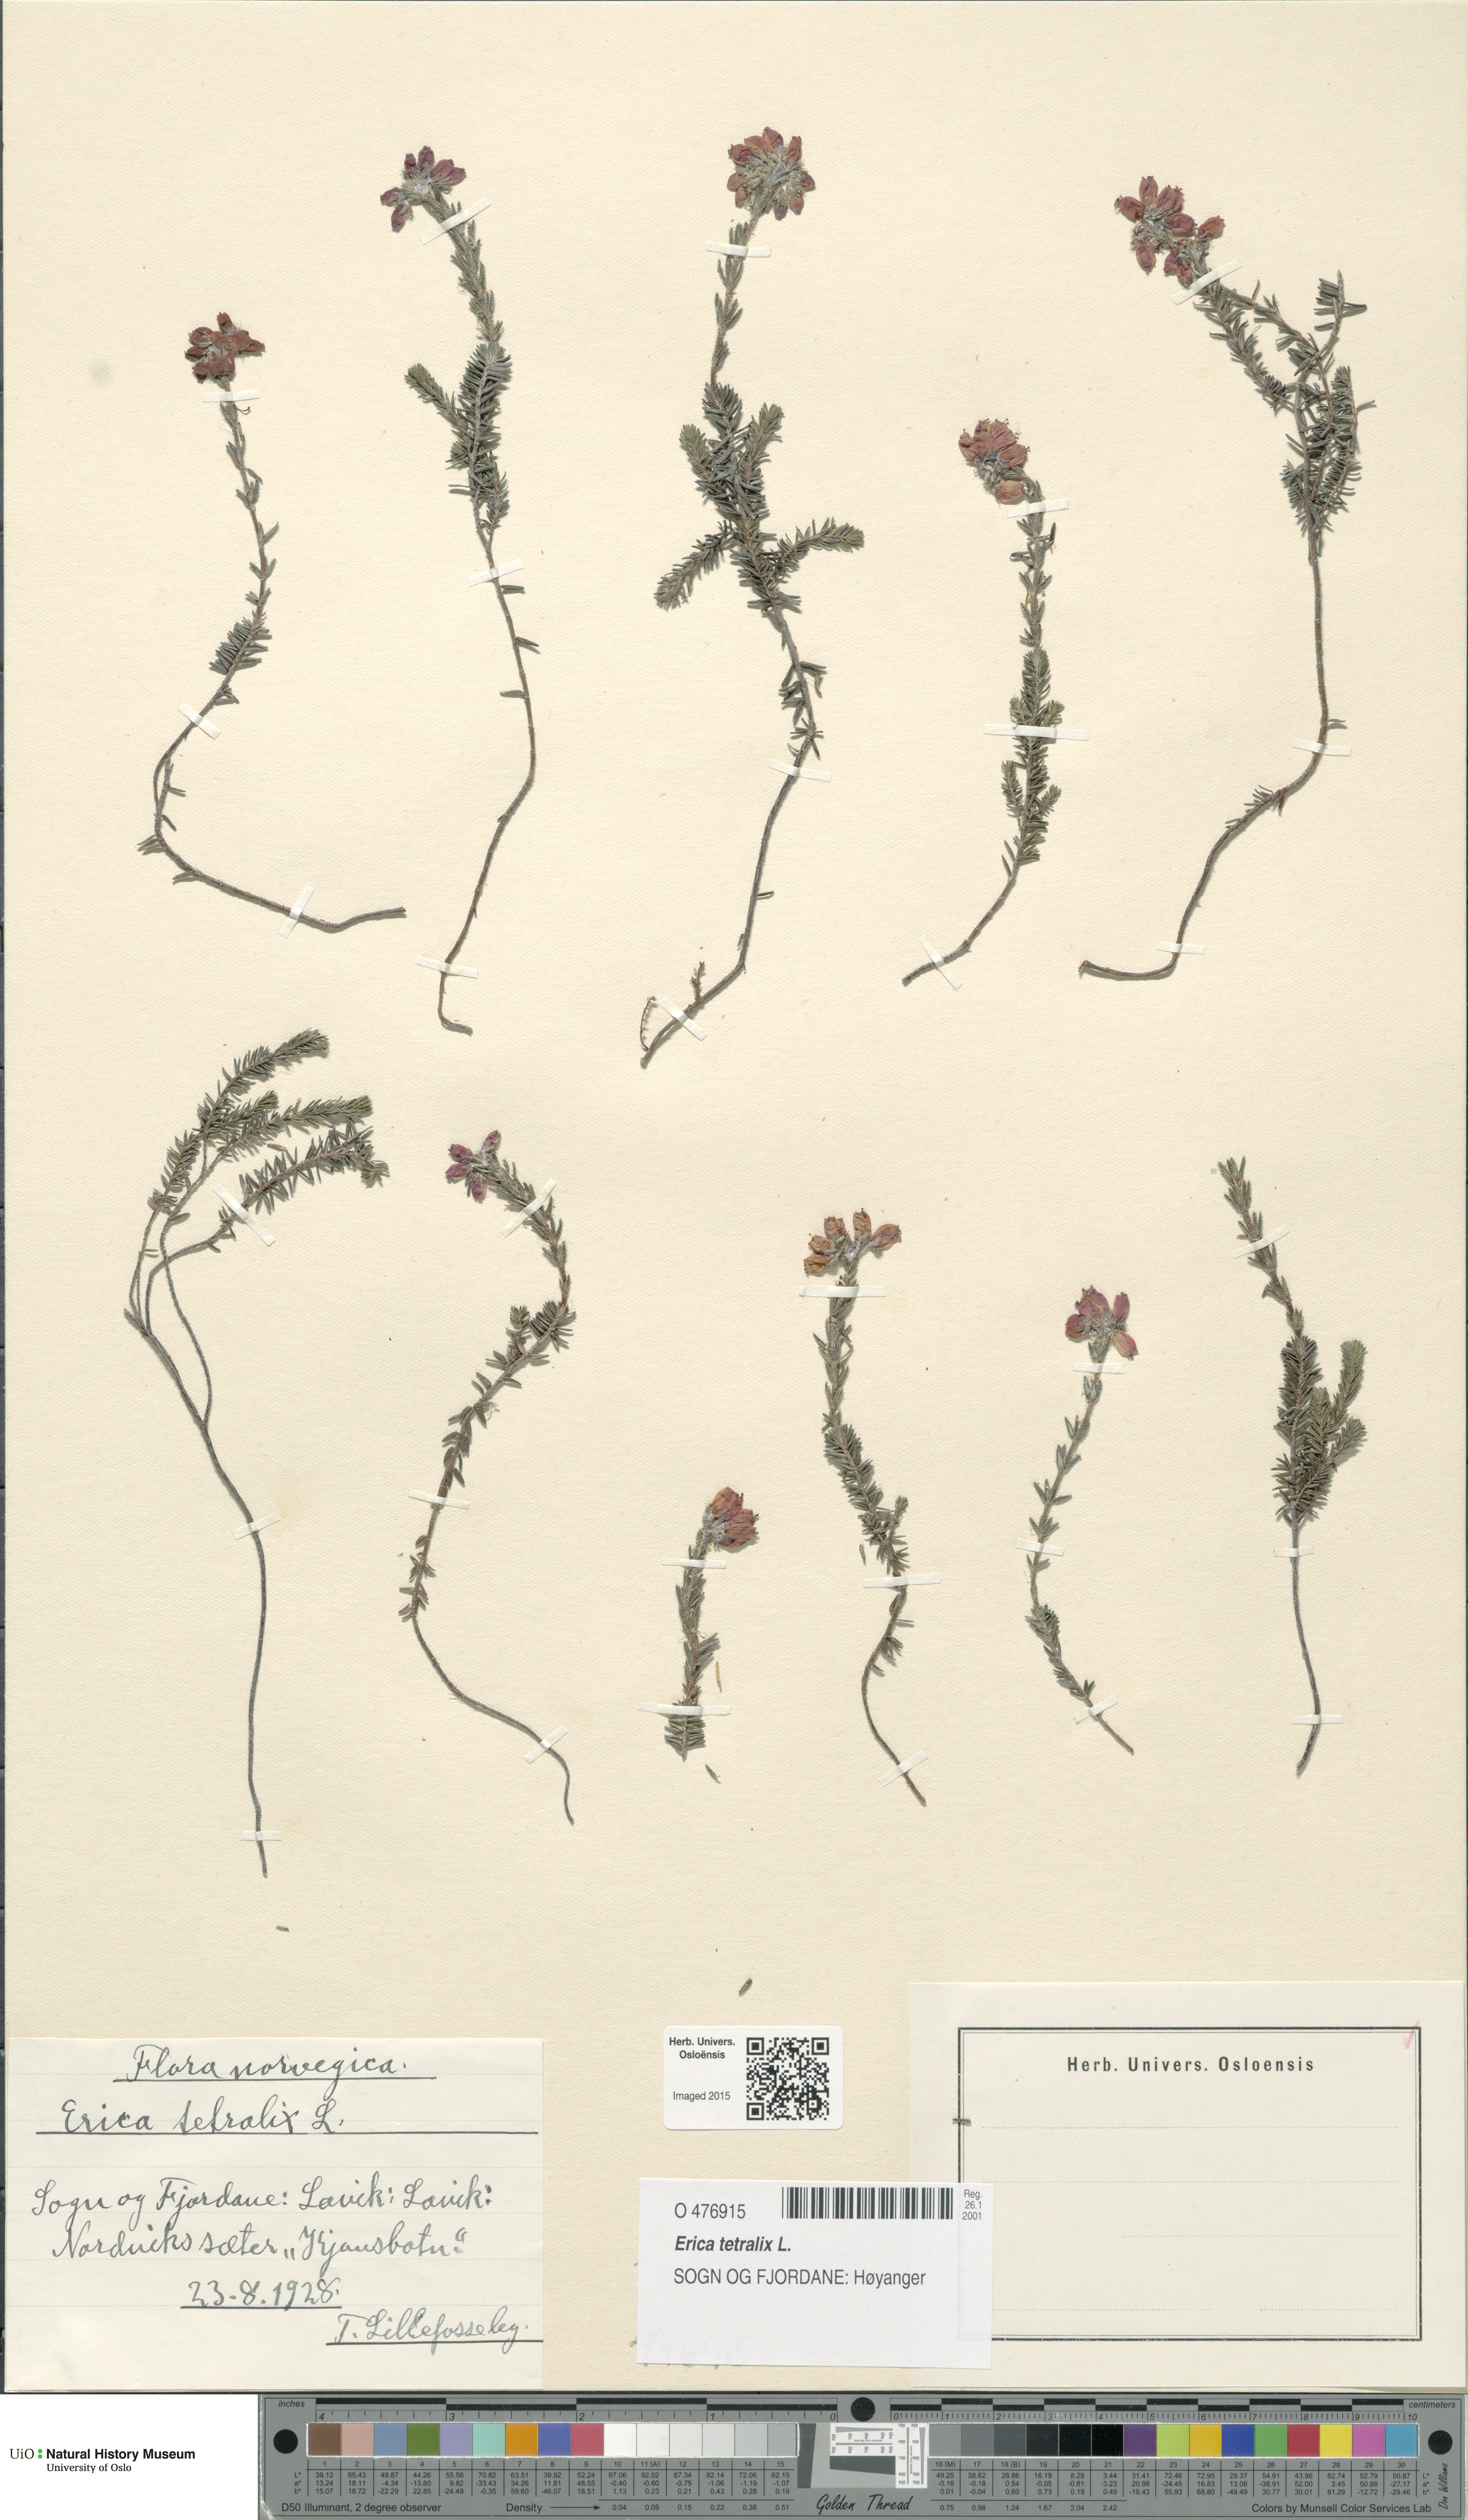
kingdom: Plantae
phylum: Tracheophyta
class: Magnoliopsida
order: Ericales
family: Ericaceae
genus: Erica
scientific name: Erica tetralix
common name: Cross-leaved heath
